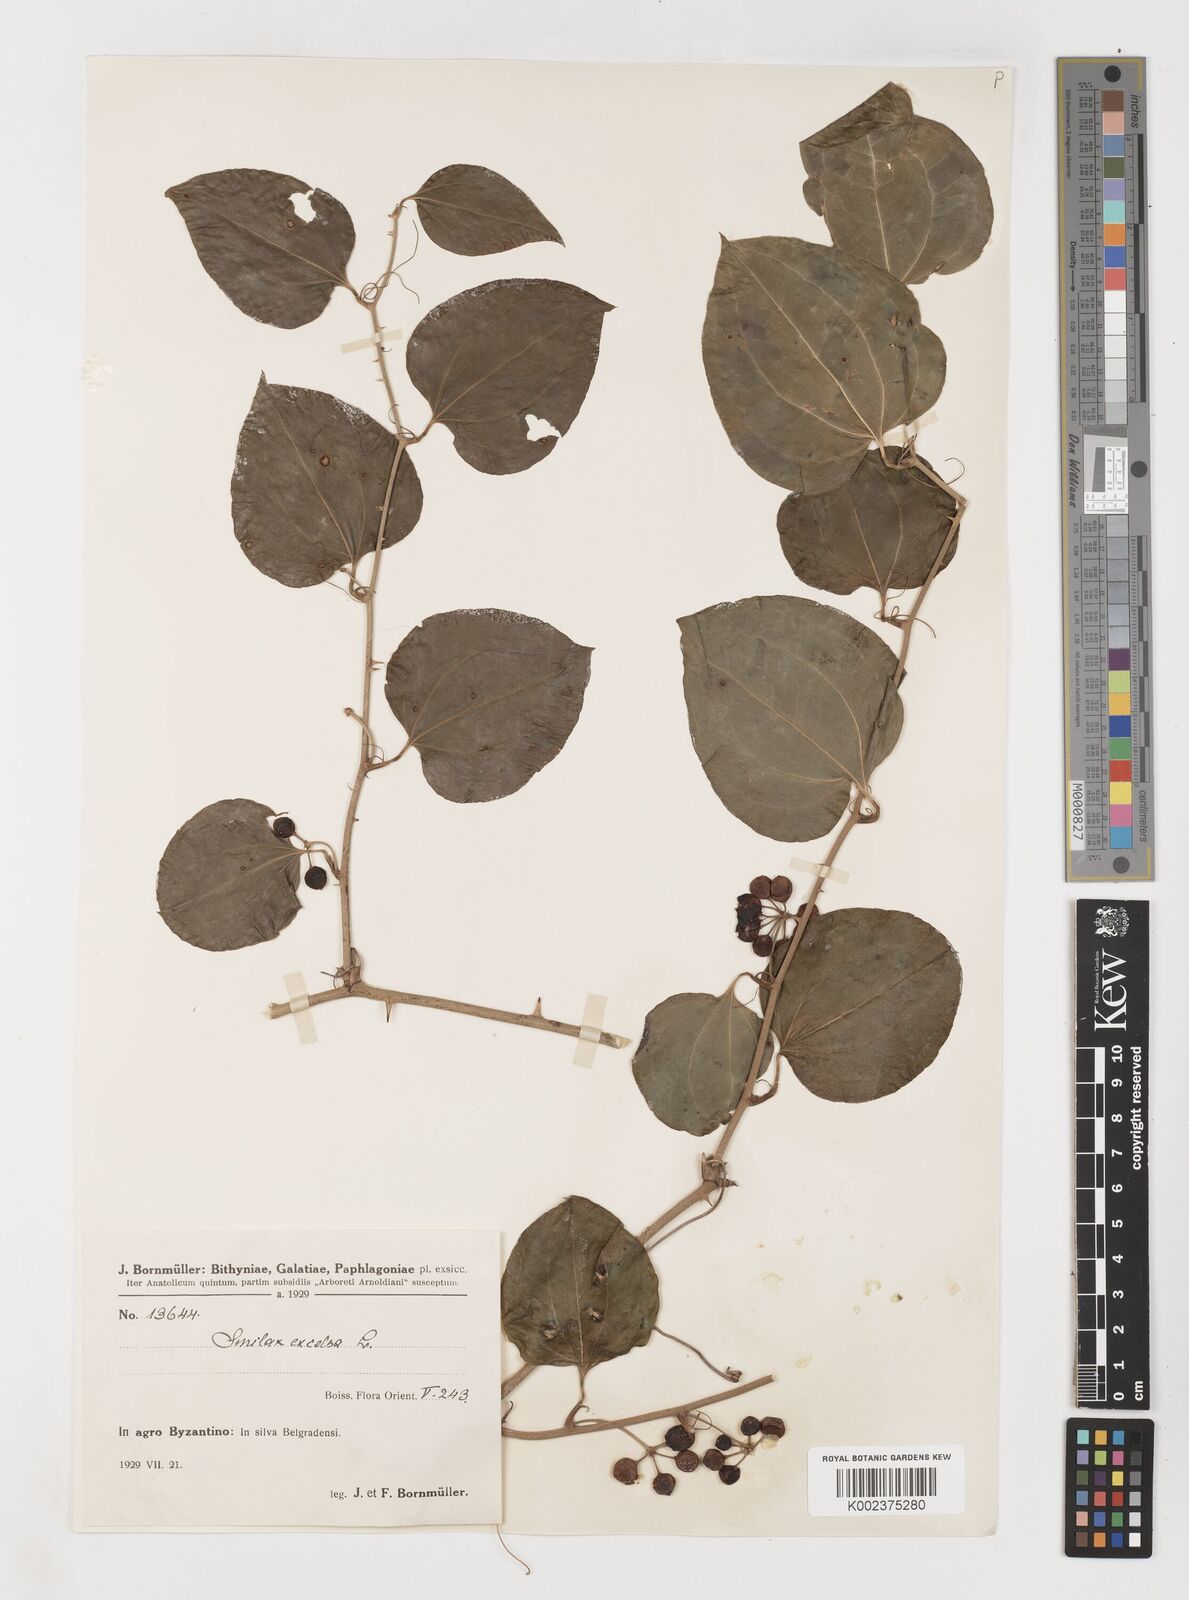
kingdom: Plantae
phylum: Tracheophyta
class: Liliopsida
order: Liliales
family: Smilacaceae
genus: Smilax
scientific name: Smilax excelsa
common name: Larger smilax
